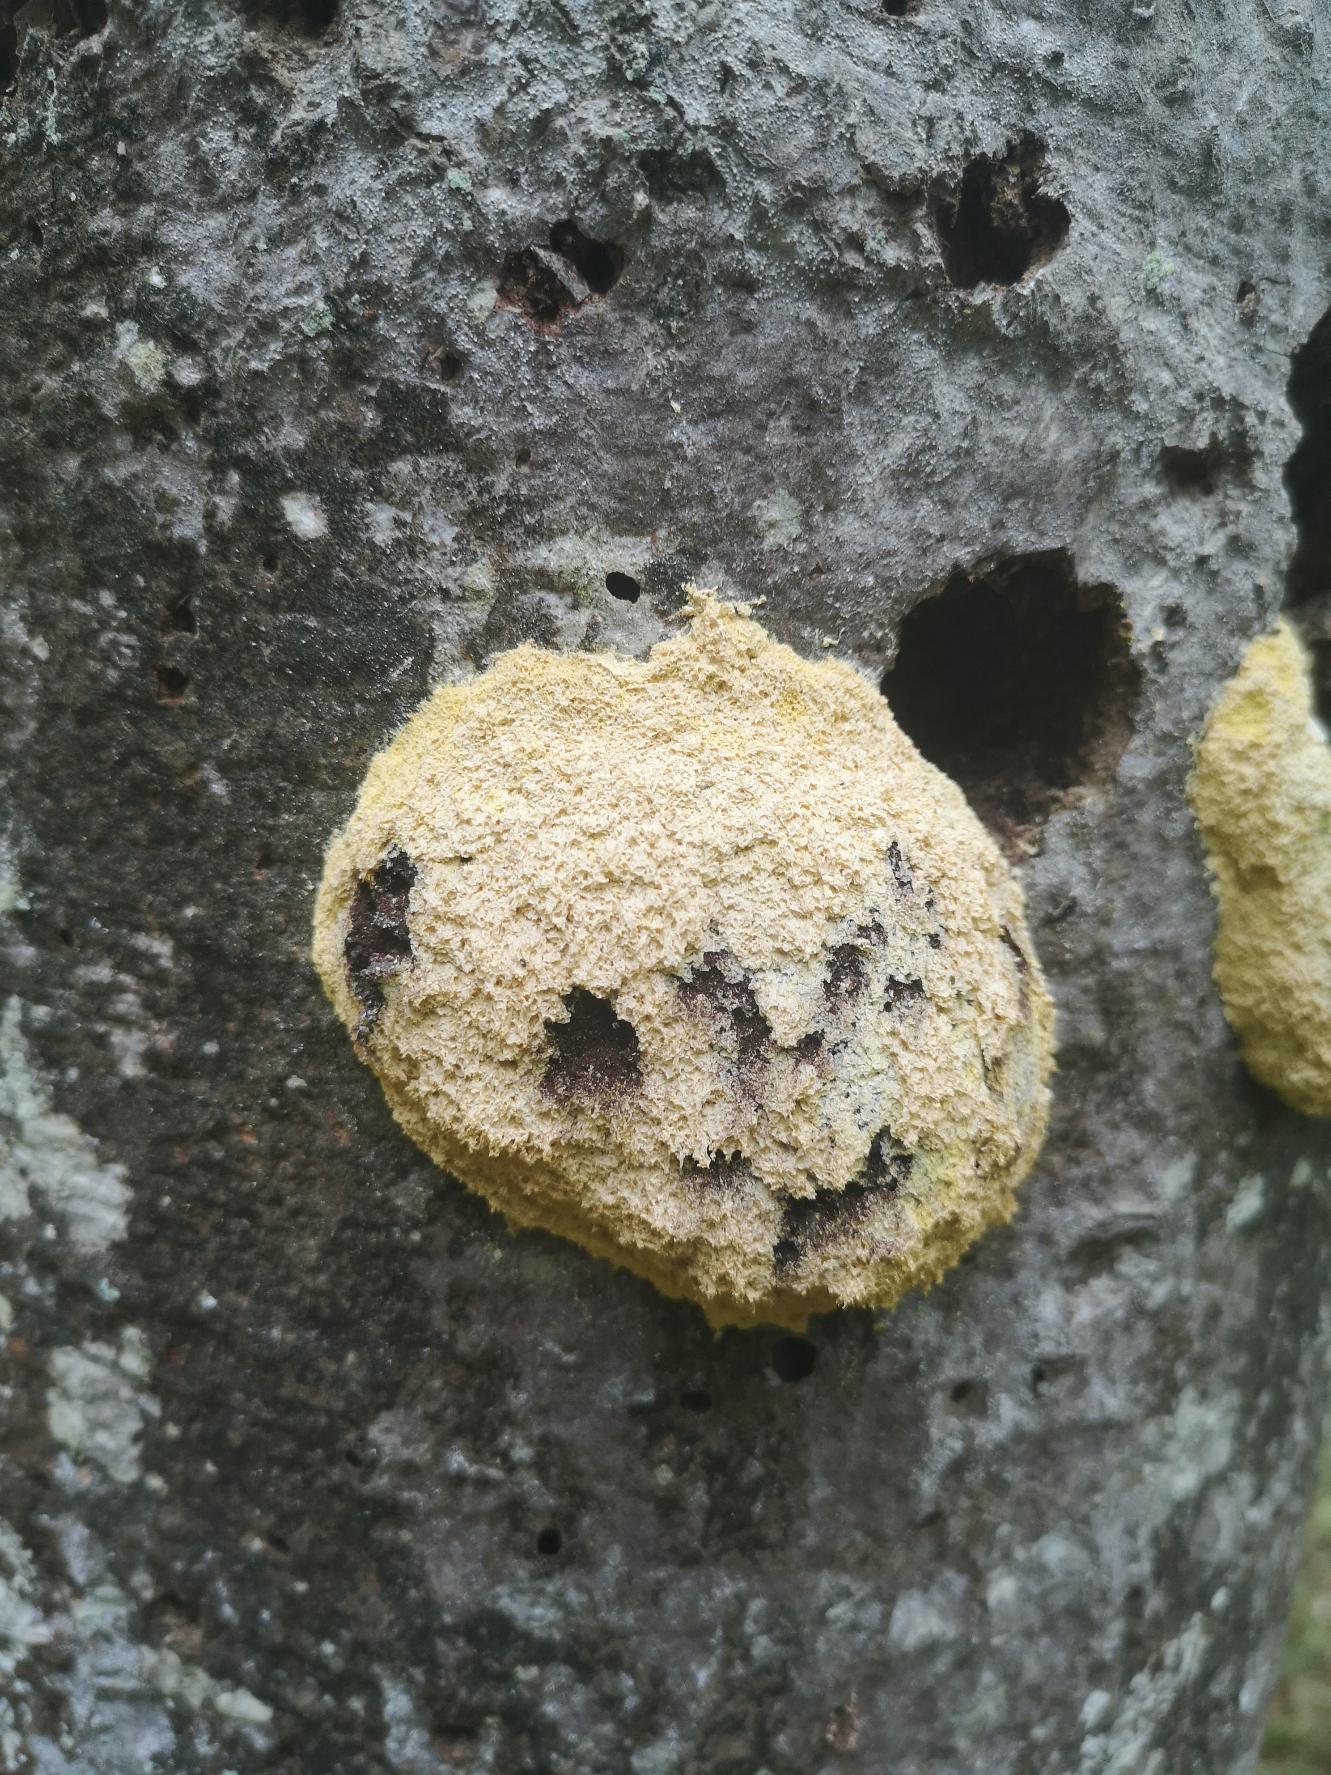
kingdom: Protozoa
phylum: Mycetozoa
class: Myxomycetes
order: Physarales
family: Physaraceae
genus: Fuligo
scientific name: Fuligo septica
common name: Gul troldsmør
